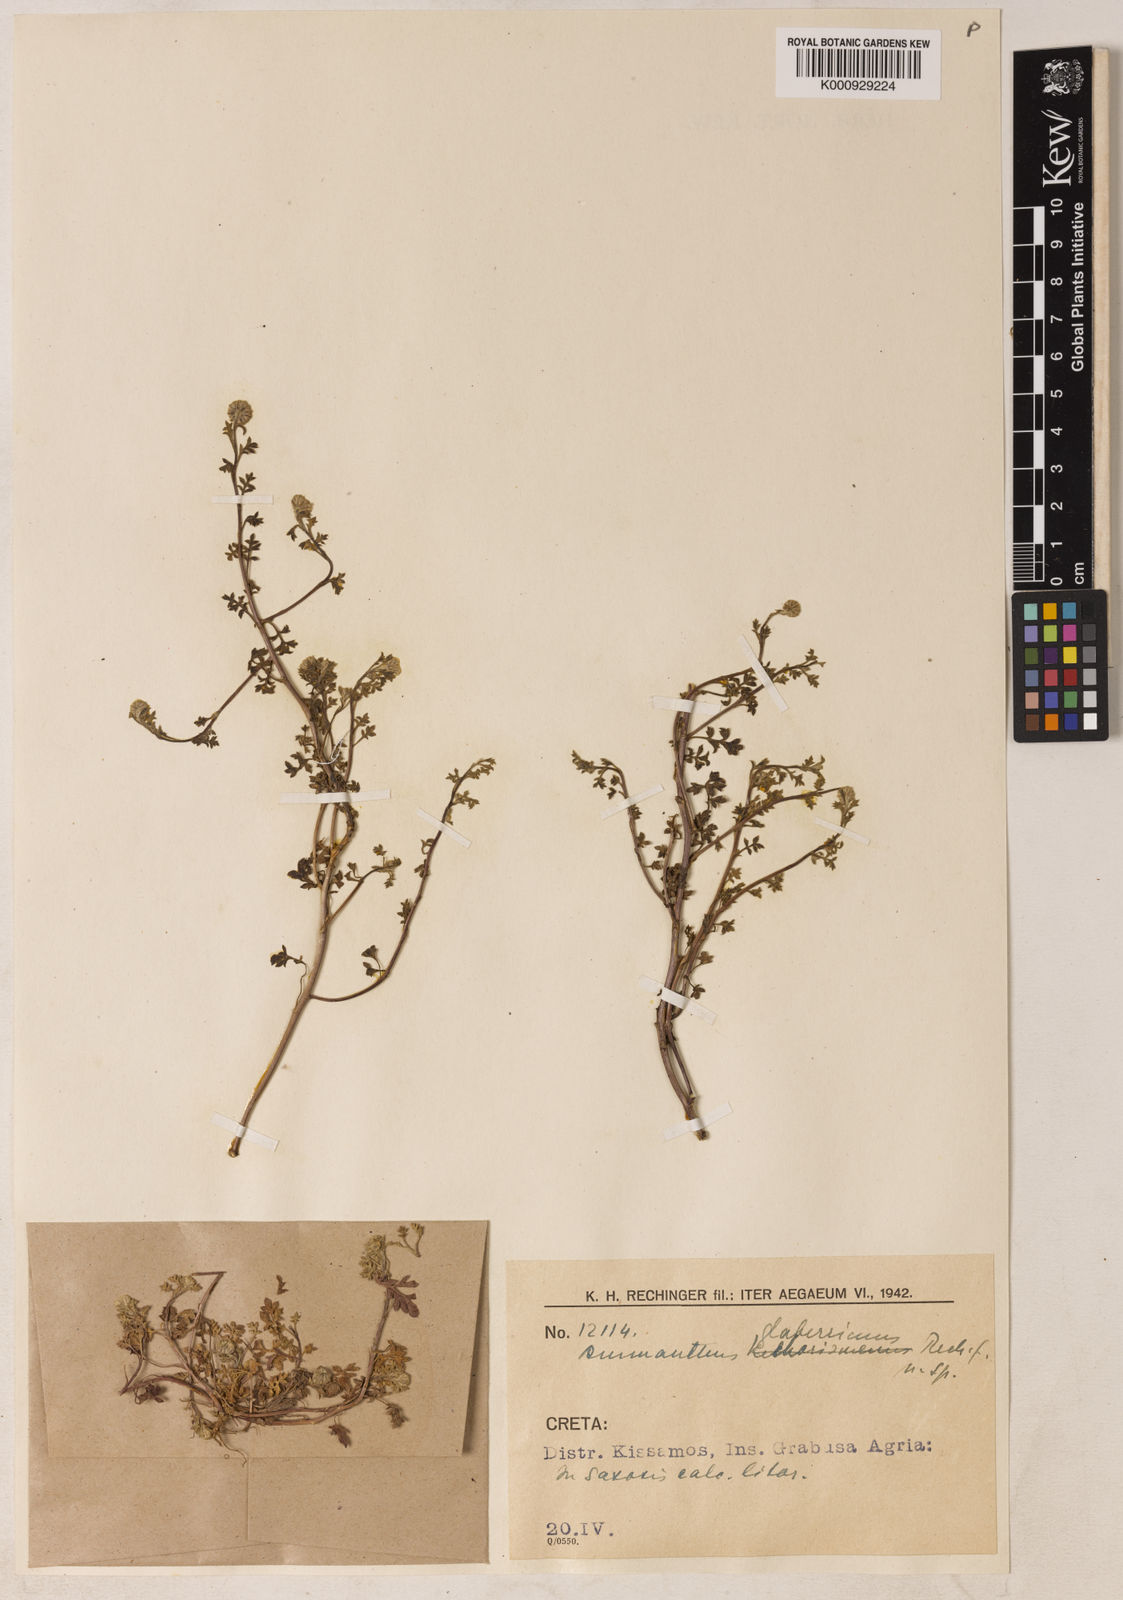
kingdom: Plantae
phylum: Tracheophyta
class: Magnoliopsida
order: Asterales
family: Asteraceae
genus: Anthemis
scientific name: Anthemis glaberrima
